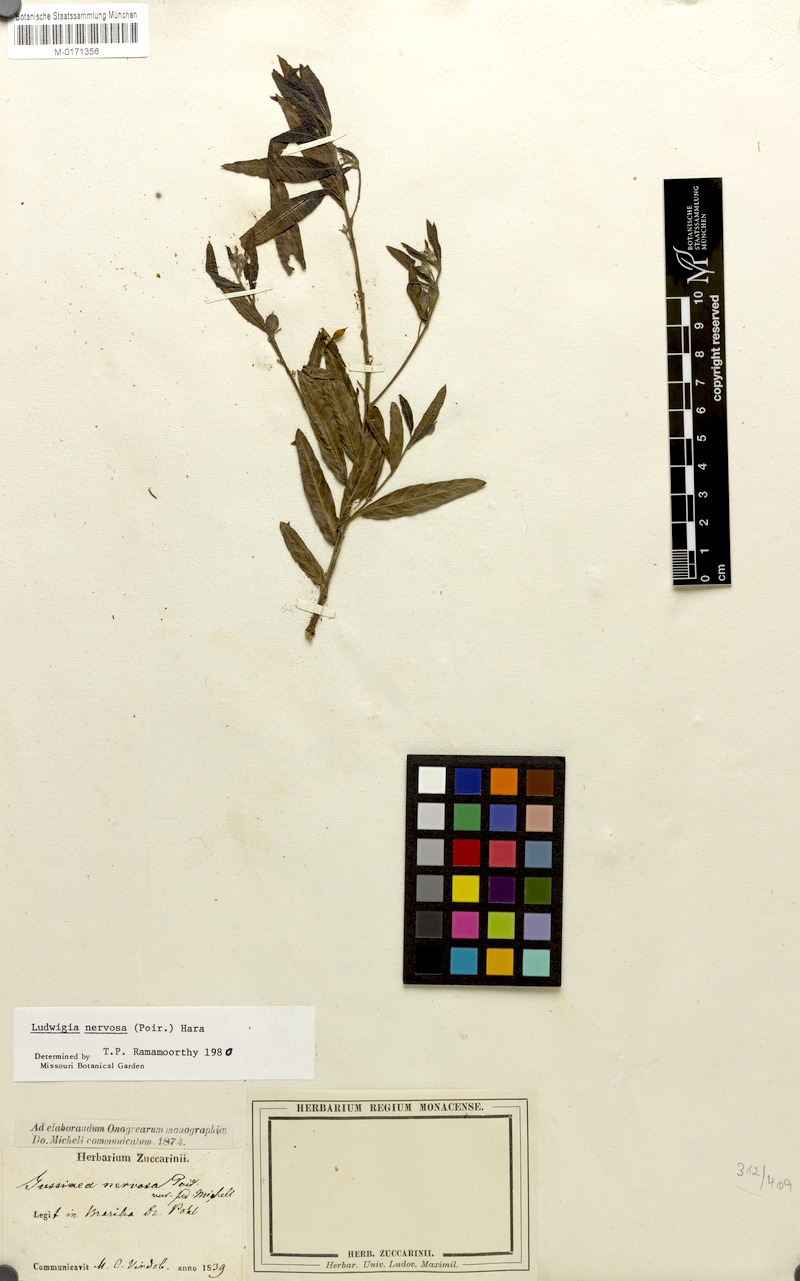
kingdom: Plantae
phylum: Tracheophyta
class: Magnoliopsida
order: Myrtales
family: Onagraceae
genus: Ludwigia
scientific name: Ludwigia nervosa
